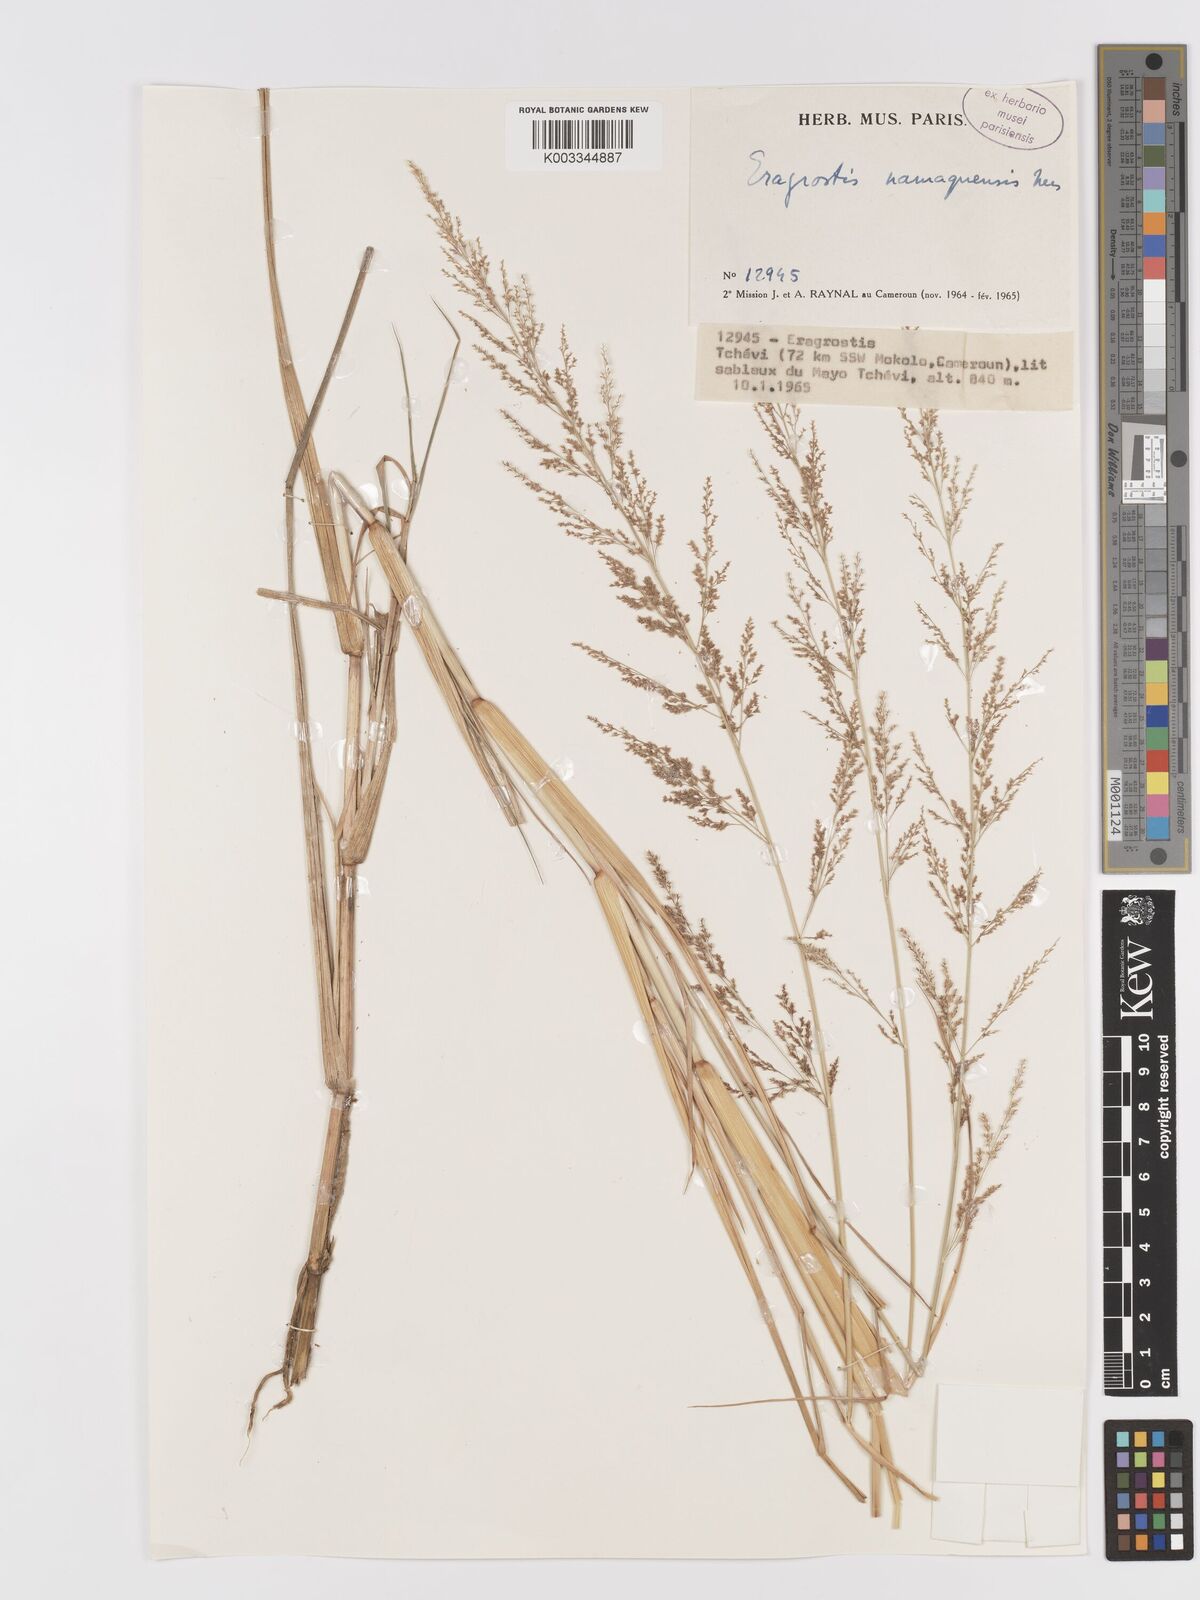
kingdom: Plantae
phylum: Tracheophyta
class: Liliopsida
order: Poales
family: Poaceae
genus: Eragrostis
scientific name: Eragrostis japonica
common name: Pond lovegrass
